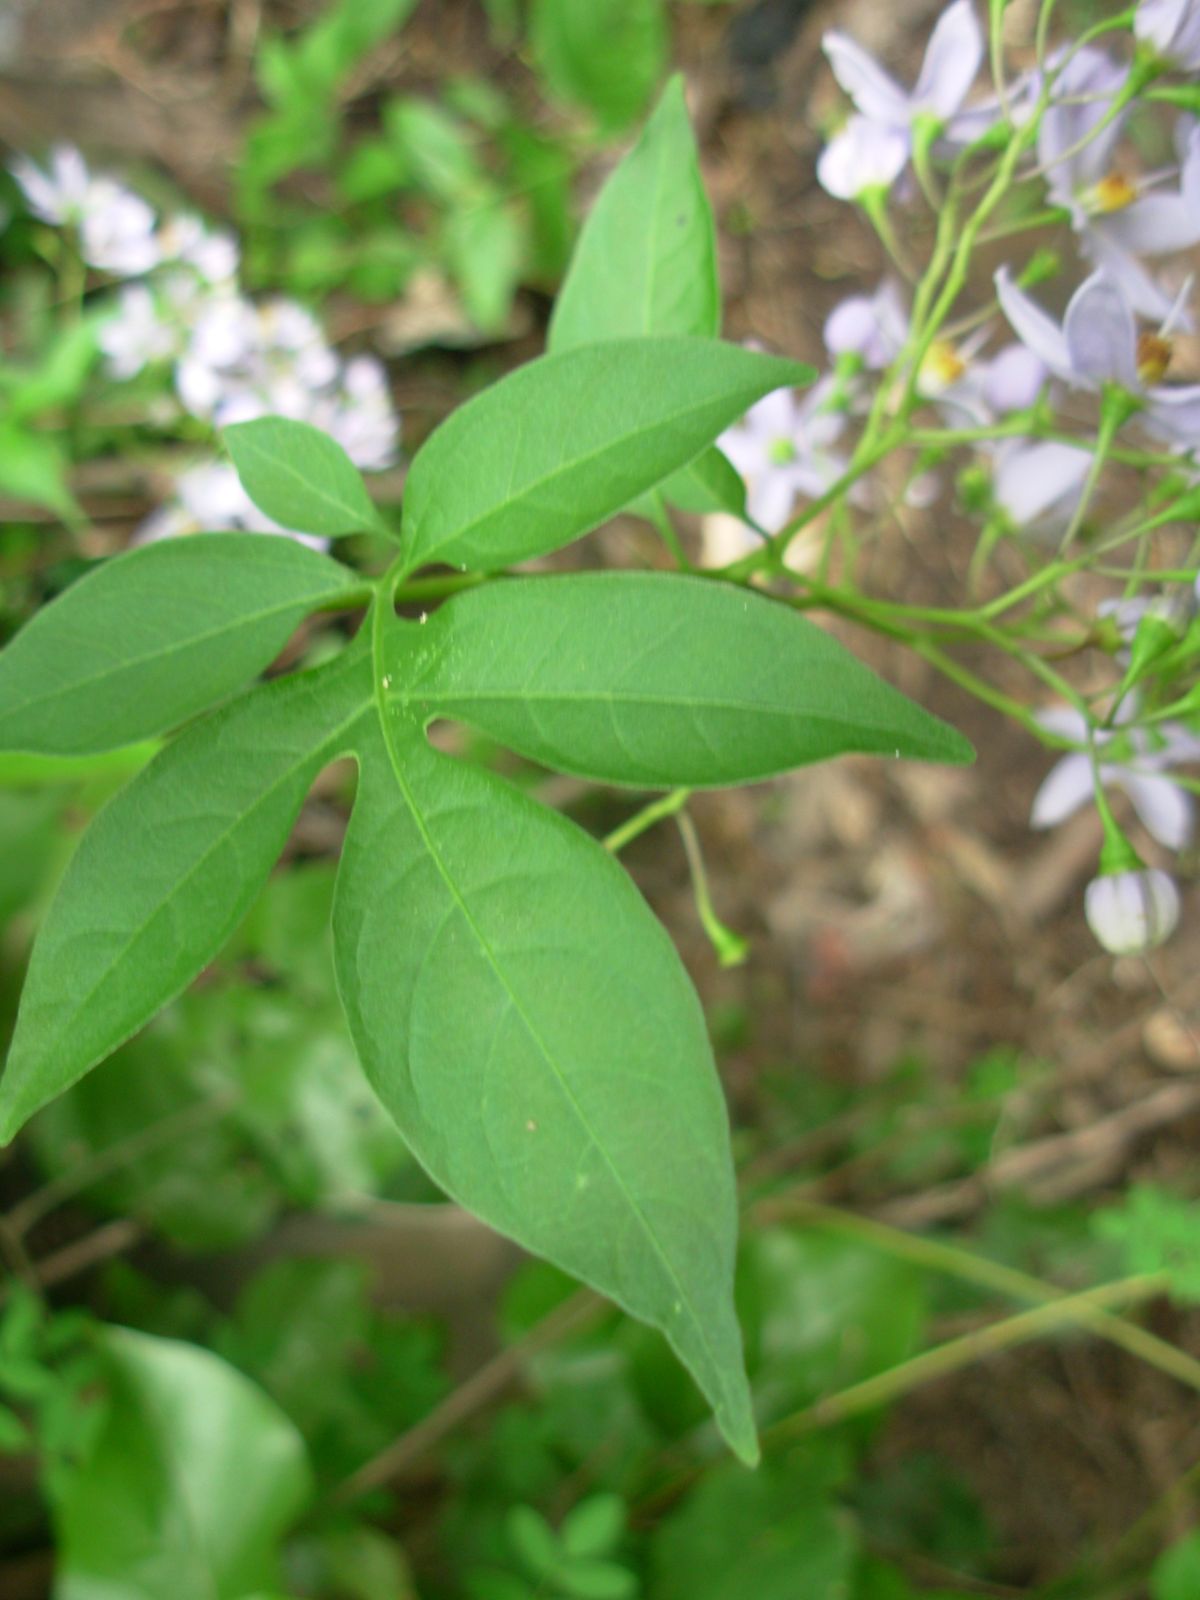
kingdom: Plantae
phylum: Tracheophyta
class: Magnoliopsida
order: Solanales
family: Solanaceae
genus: Solanum
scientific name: Solanum seaforthianum
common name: Brazilian nightshade
